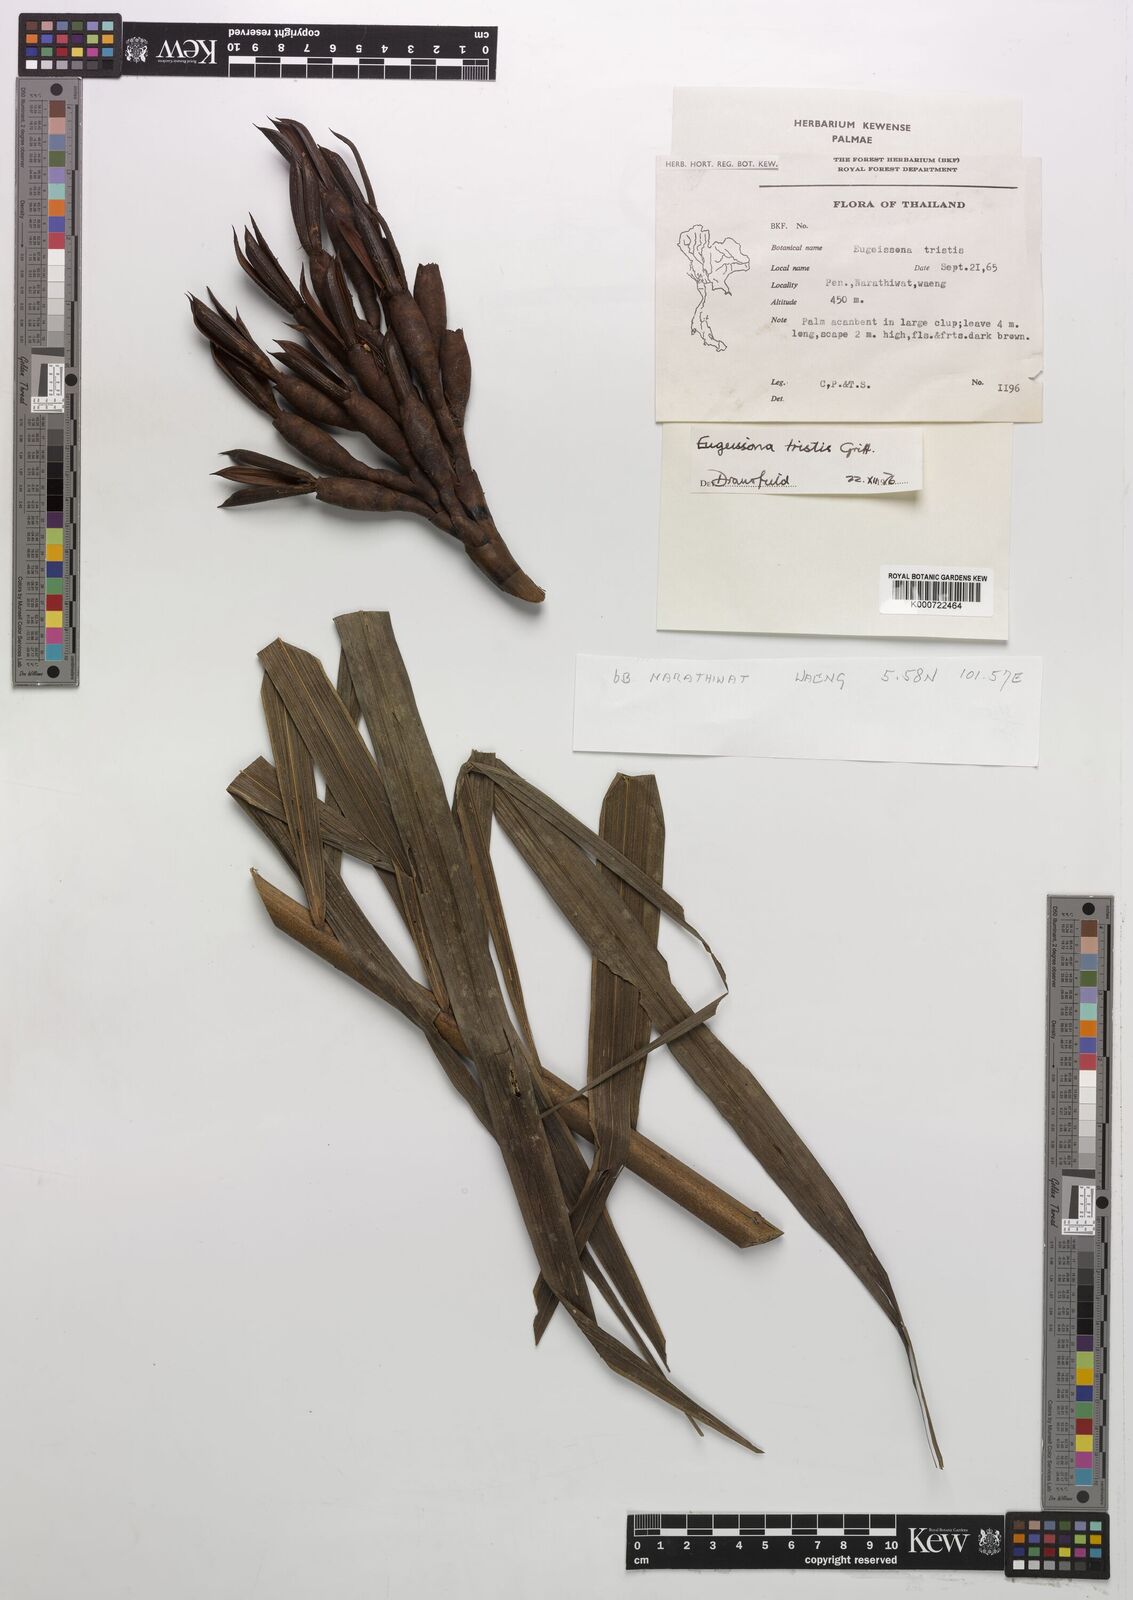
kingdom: Plantae
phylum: Tracheophyta
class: Liliopsida
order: Arecales
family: Arecaceae
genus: Eugeissona
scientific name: Eugeissona tristis
